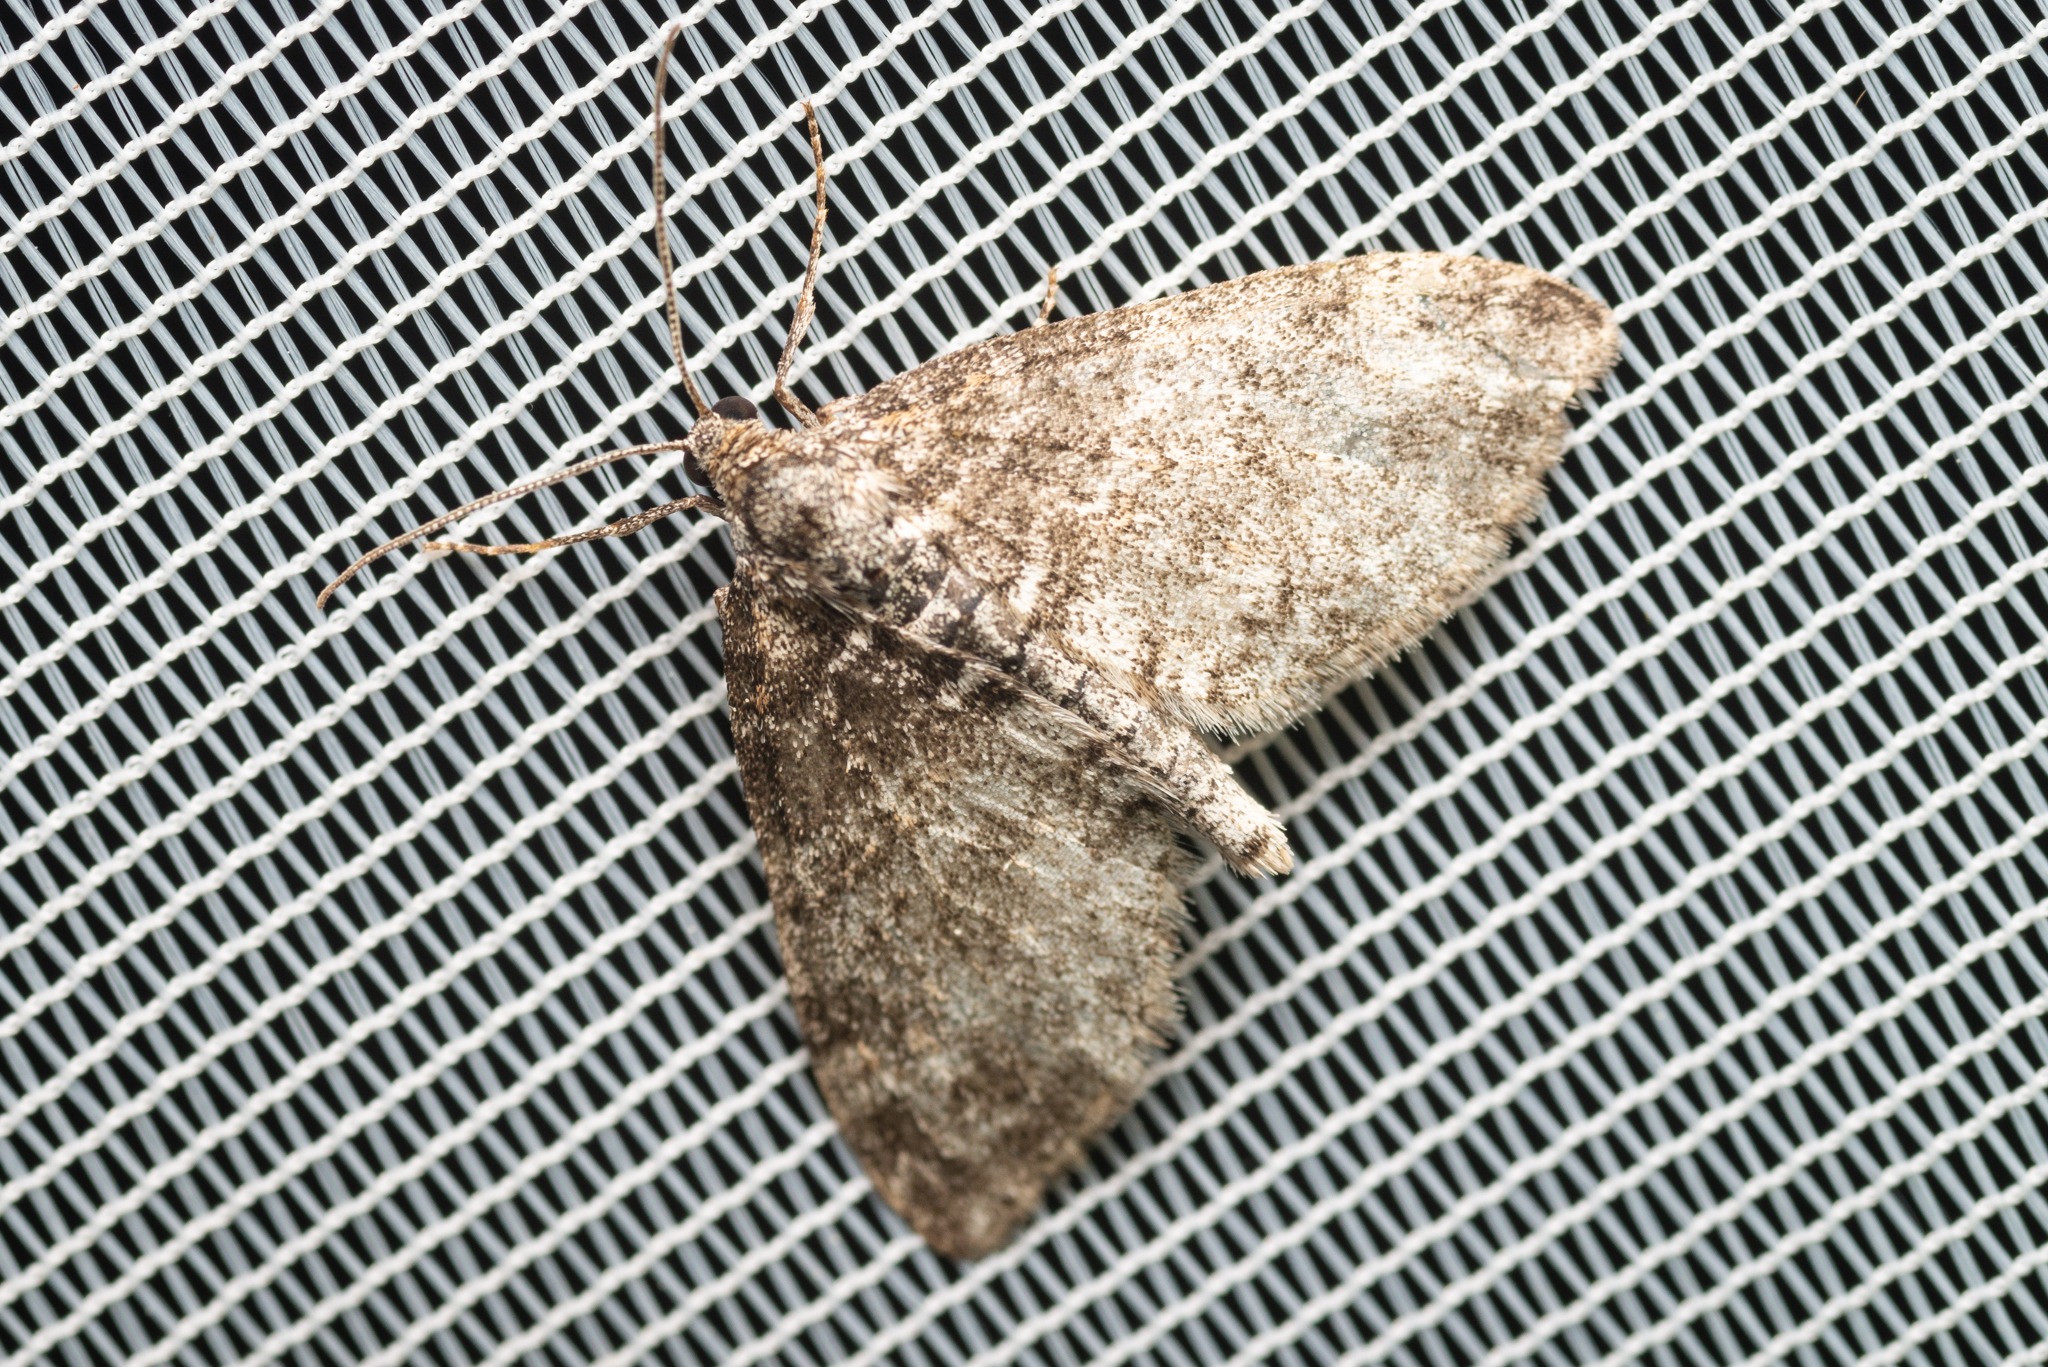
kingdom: Animalia
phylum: Arthropoda
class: Insecta
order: Lepidoptera
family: Geometridae
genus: Lobophora
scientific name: Lobophora halterata
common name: Poppel-lapvinge
